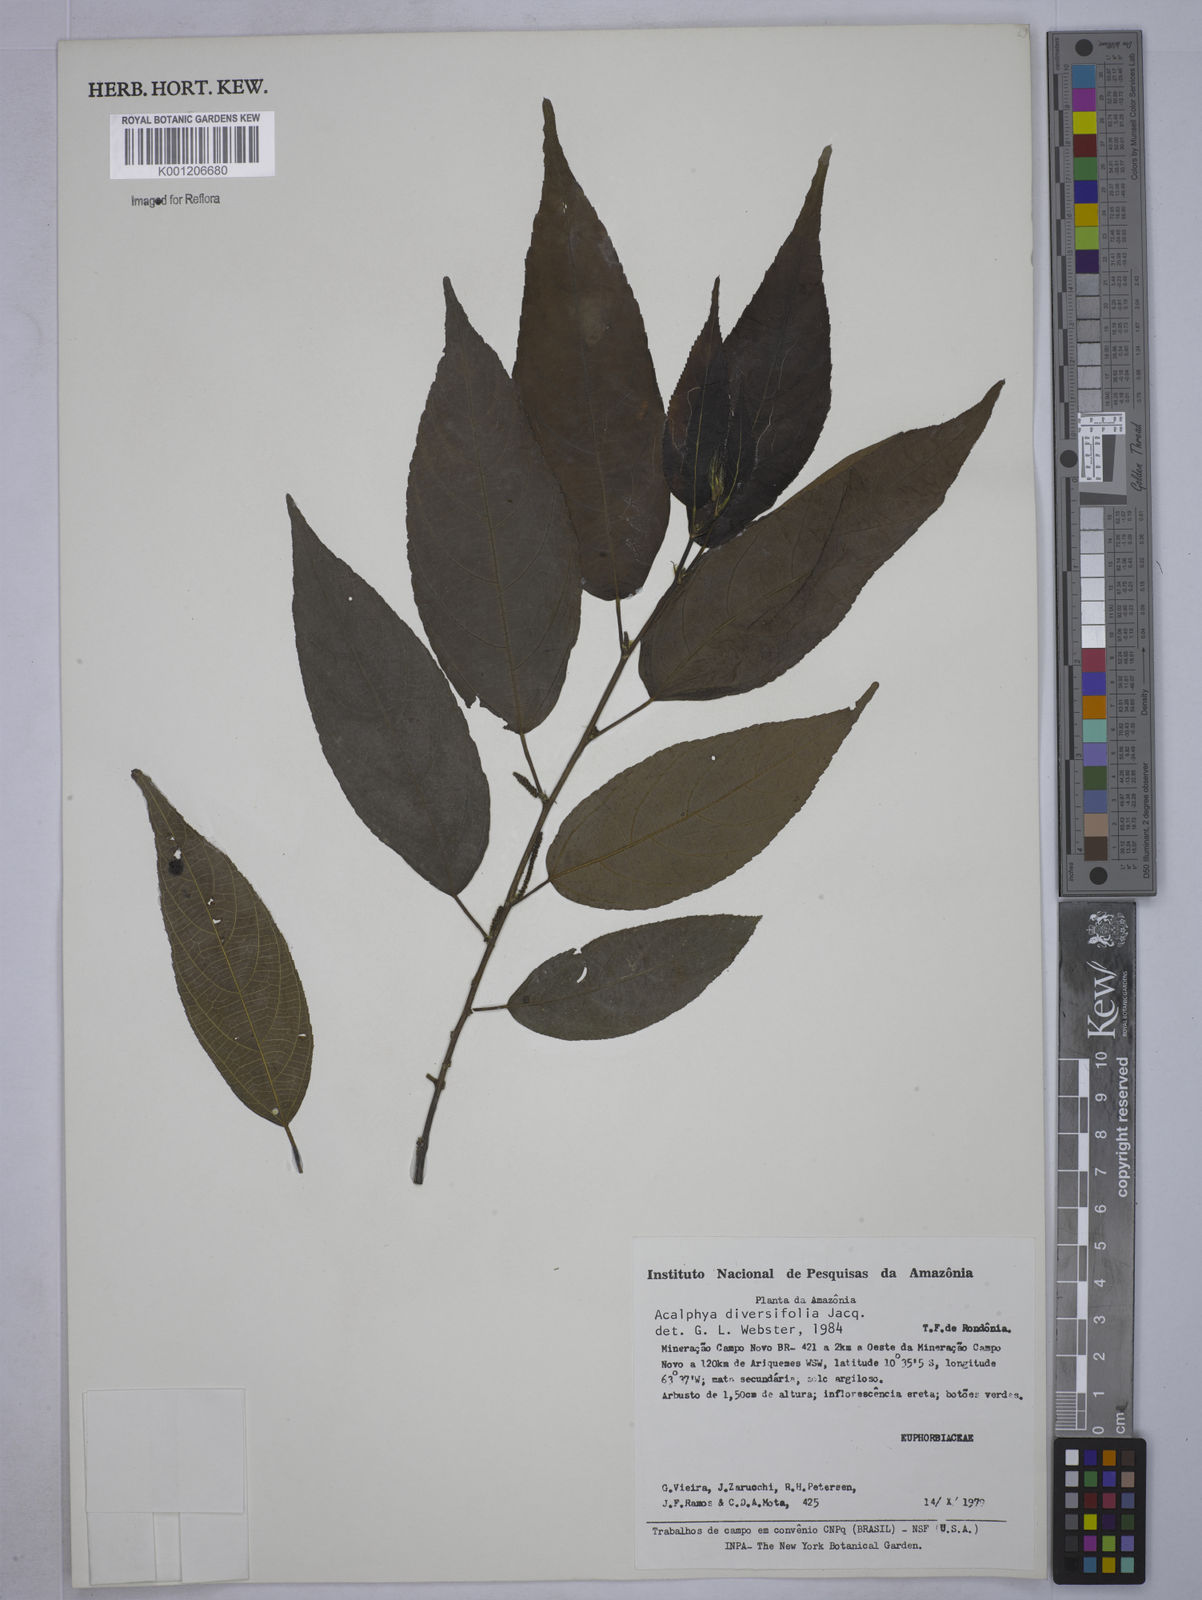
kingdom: Plantae
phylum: Tracheophyta
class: Magnoliopsida
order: Malpighiales
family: Euphorbiaceae
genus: Acalypha
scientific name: Acalypha diversifolia
